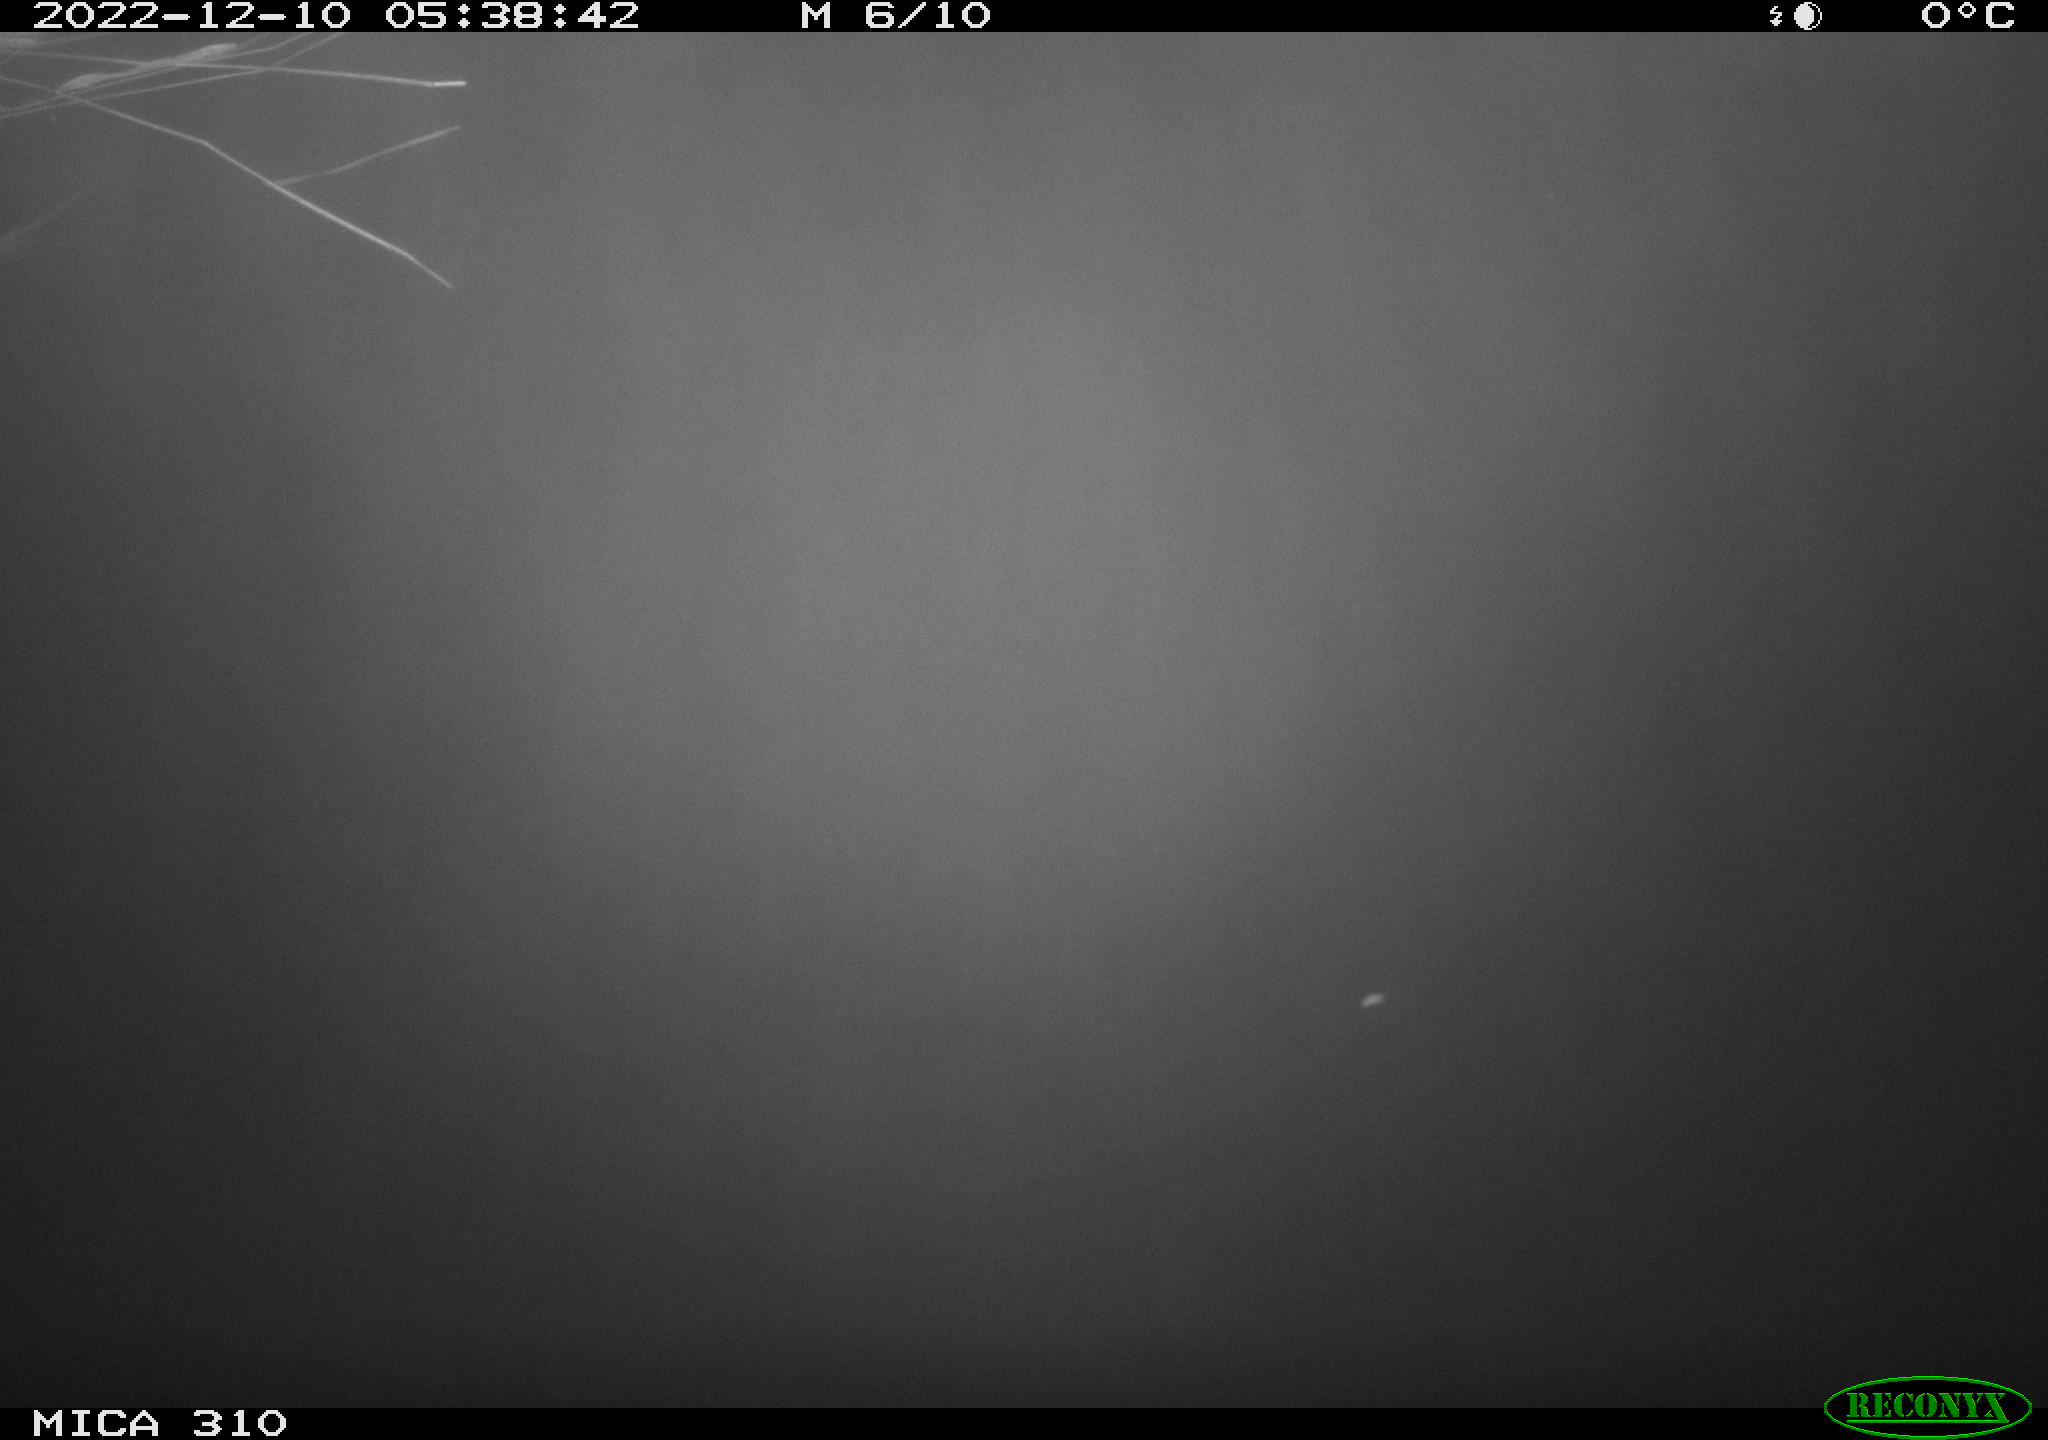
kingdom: Animalia
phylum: Chordata
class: Mammalia
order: Rodentia
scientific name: Rodentia
